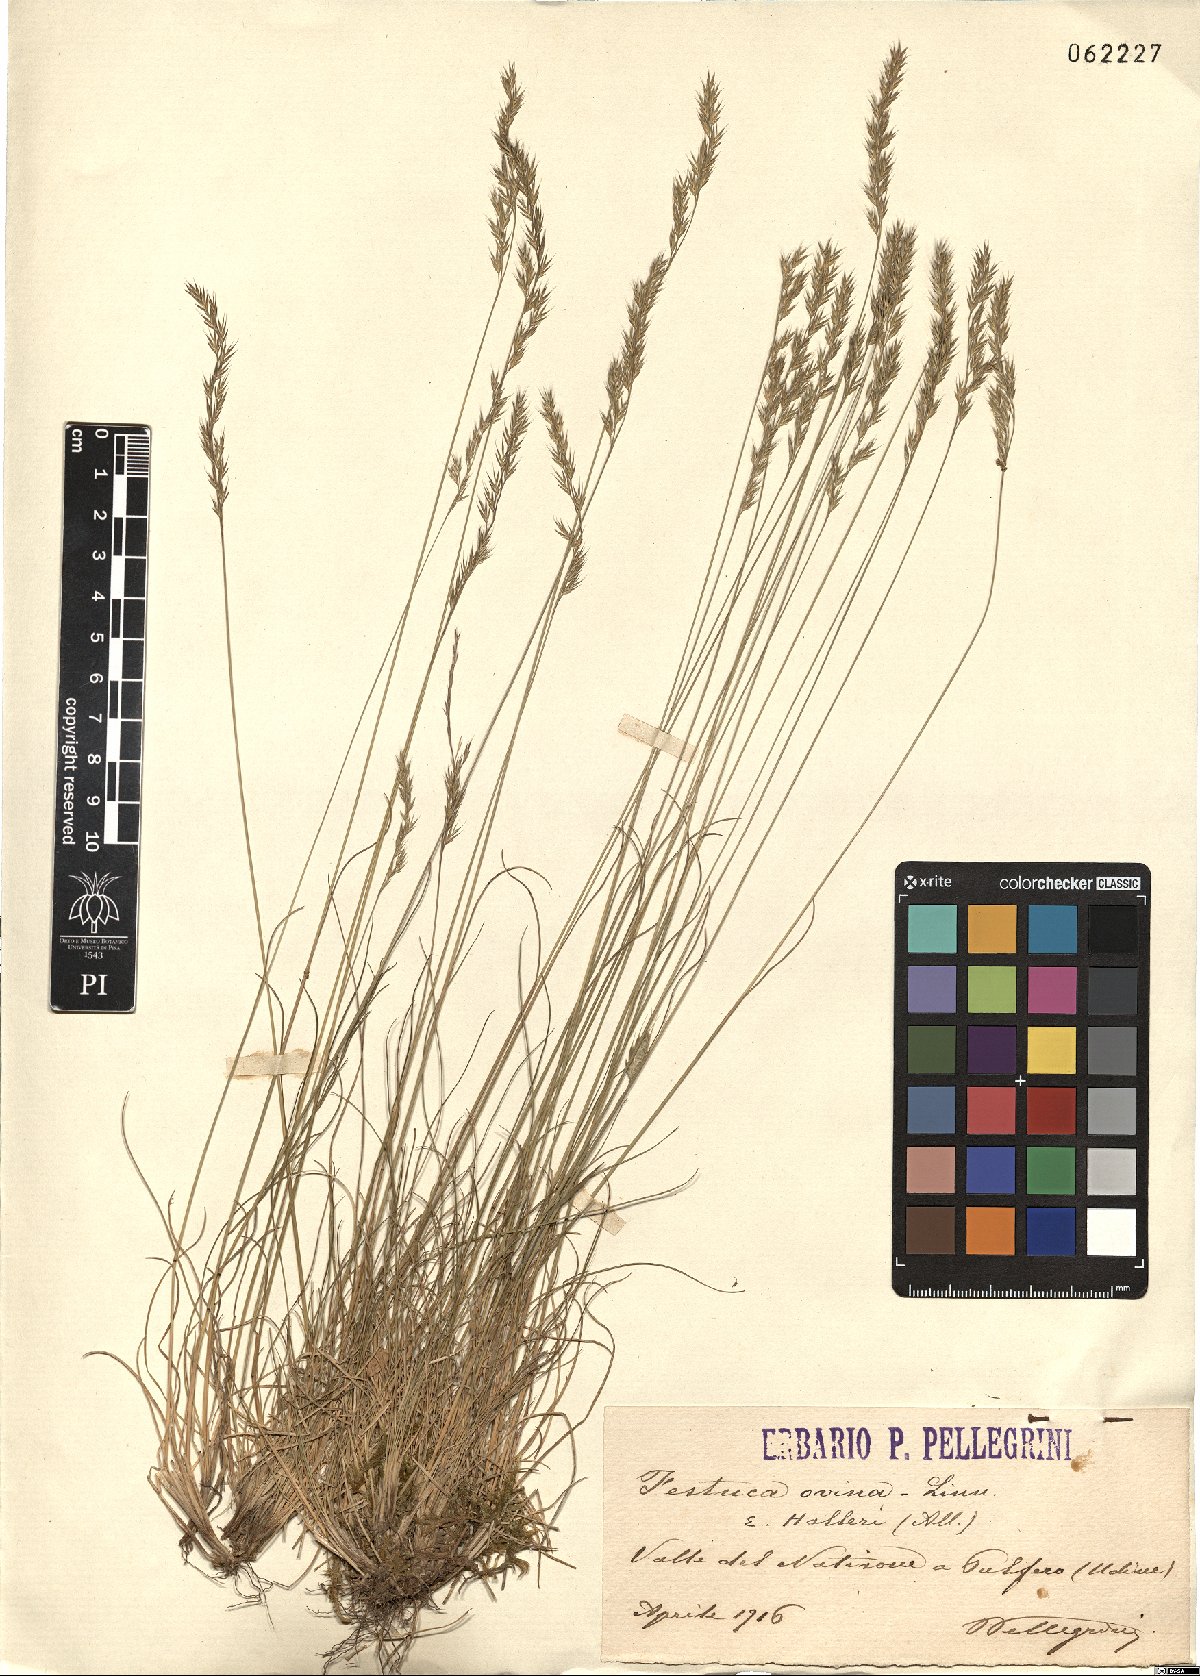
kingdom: Plantae
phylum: Tracheophyta
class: Liliopsida
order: Poales
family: Poaceae
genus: Festuca
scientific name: Festuca halleri
